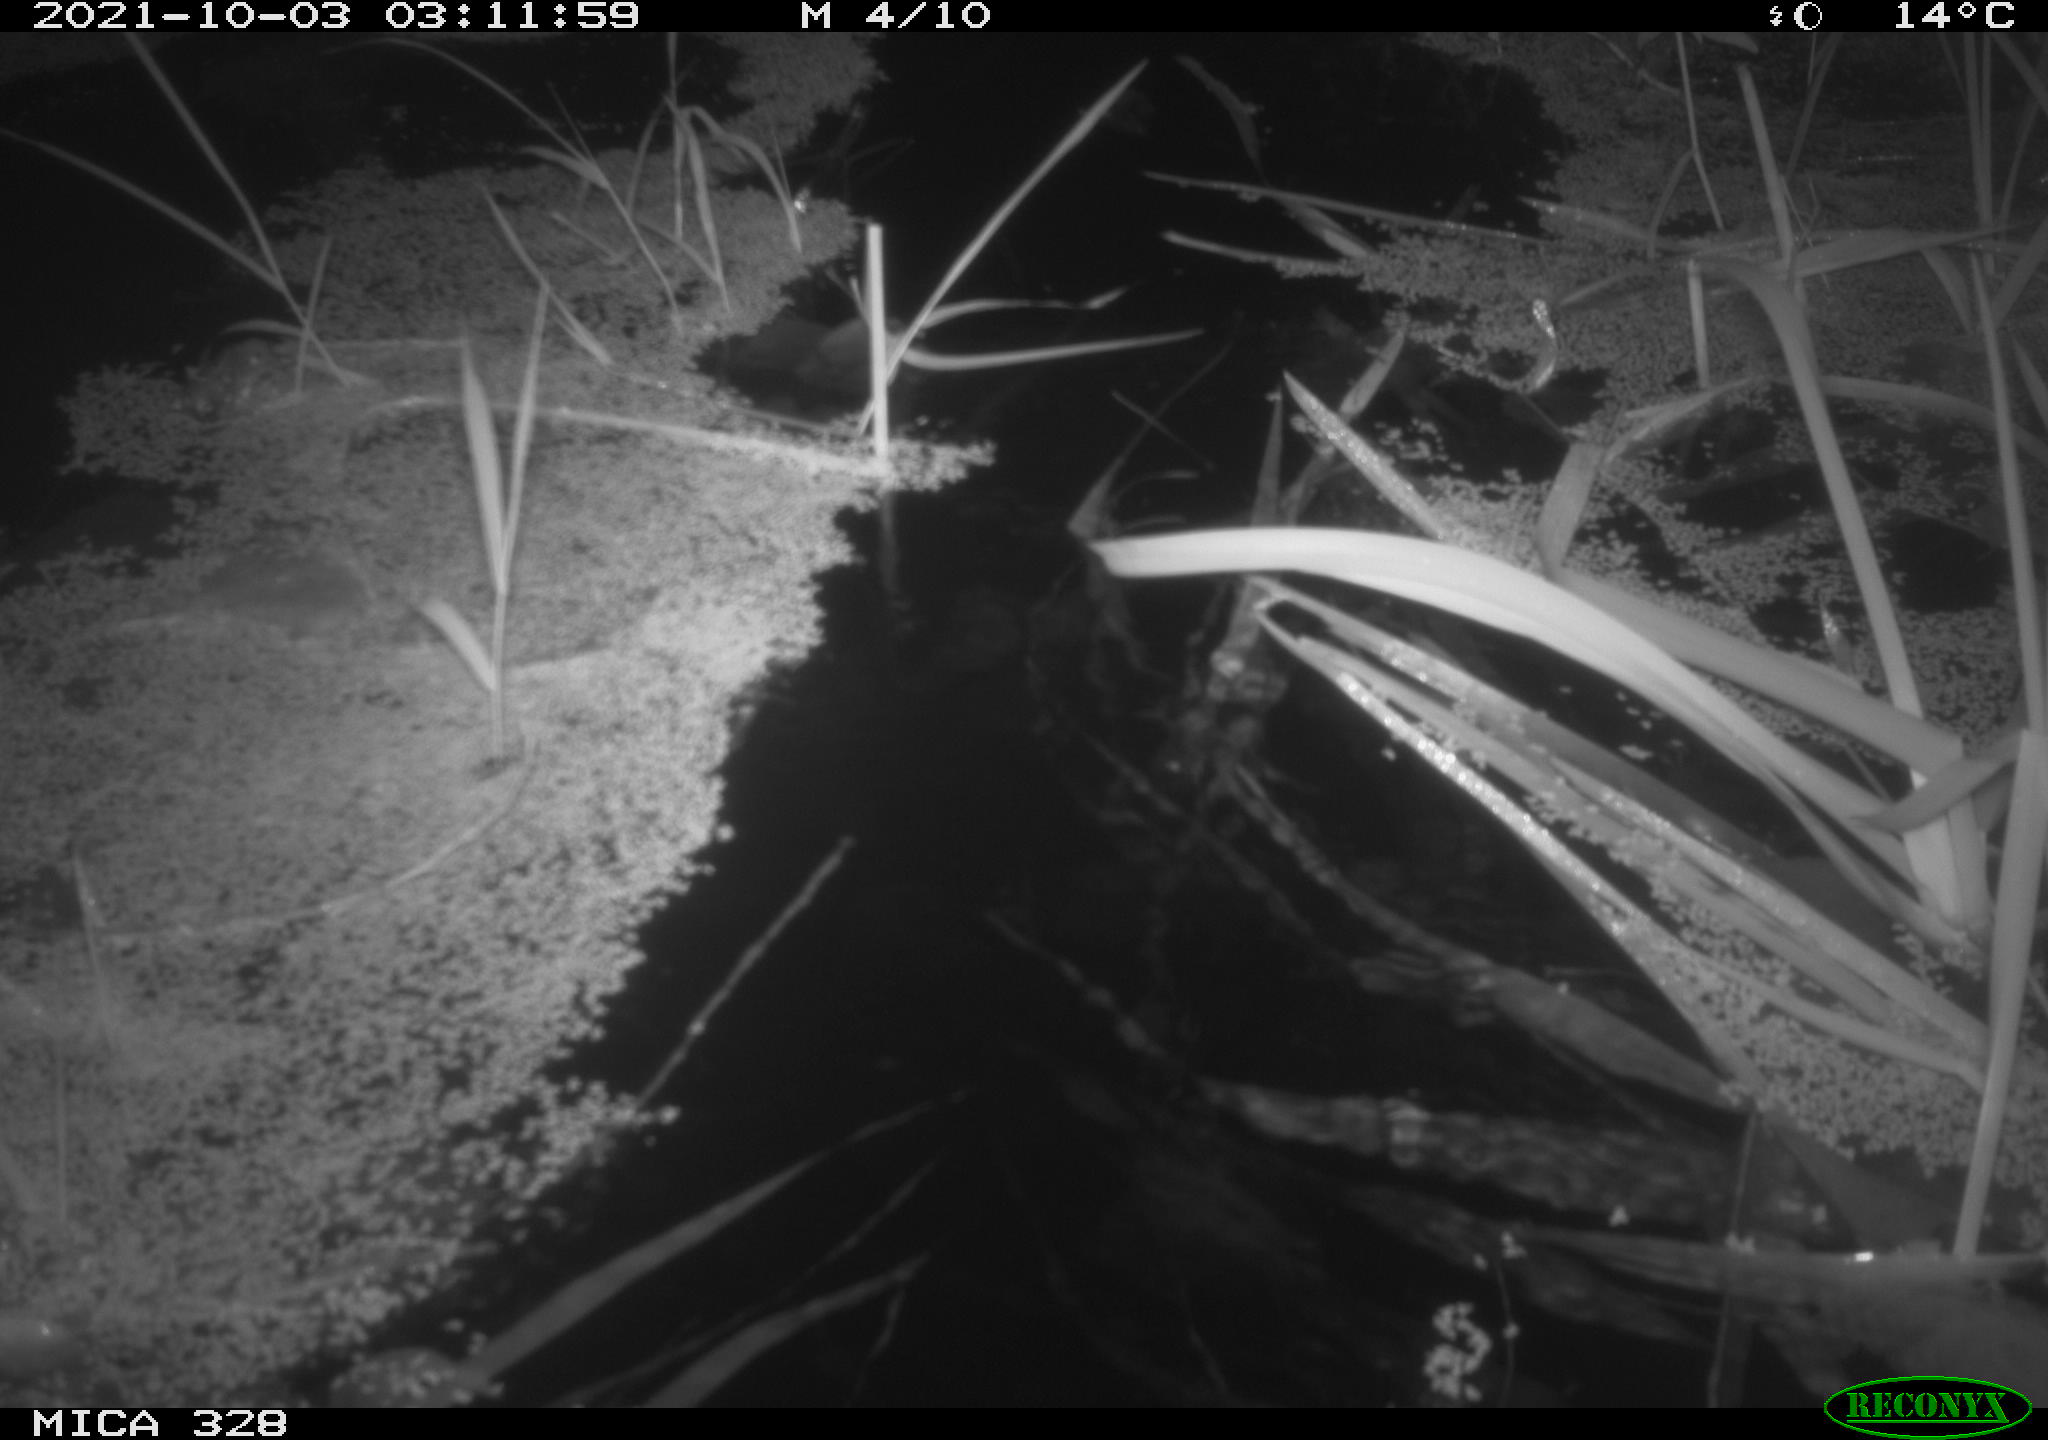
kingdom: Animalia
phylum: Chordata
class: Mammalia
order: Rodentia
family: Cricetidae
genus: Ondatra
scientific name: Ondatra zibethicus
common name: Muskrat
